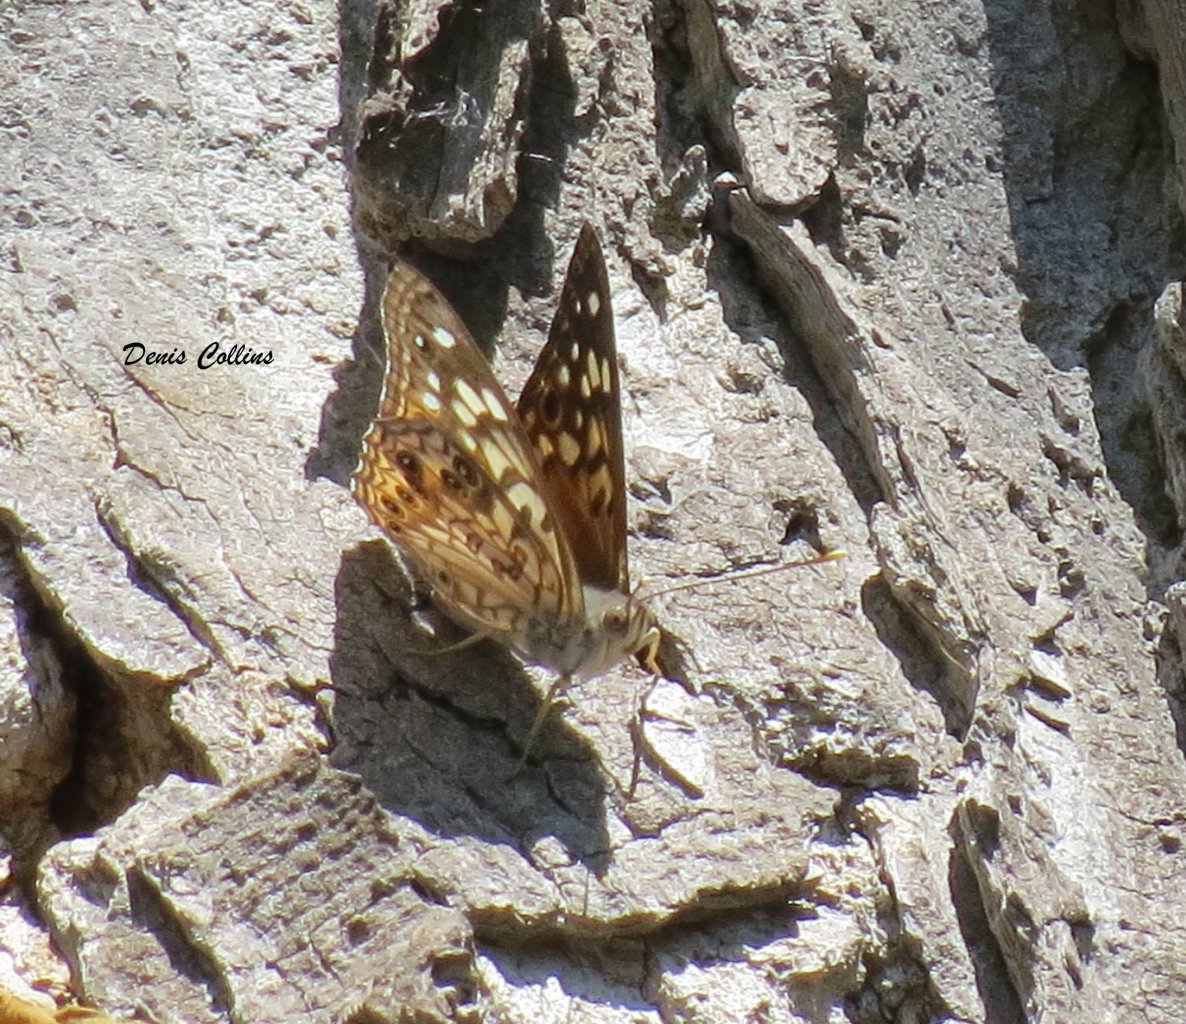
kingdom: Animalia
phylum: Arthropoda
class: Insecta
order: Lepidoptera
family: Nymphalidae
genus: Asterocampa
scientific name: Asterocampa celtis
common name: Hackberry Emperor
